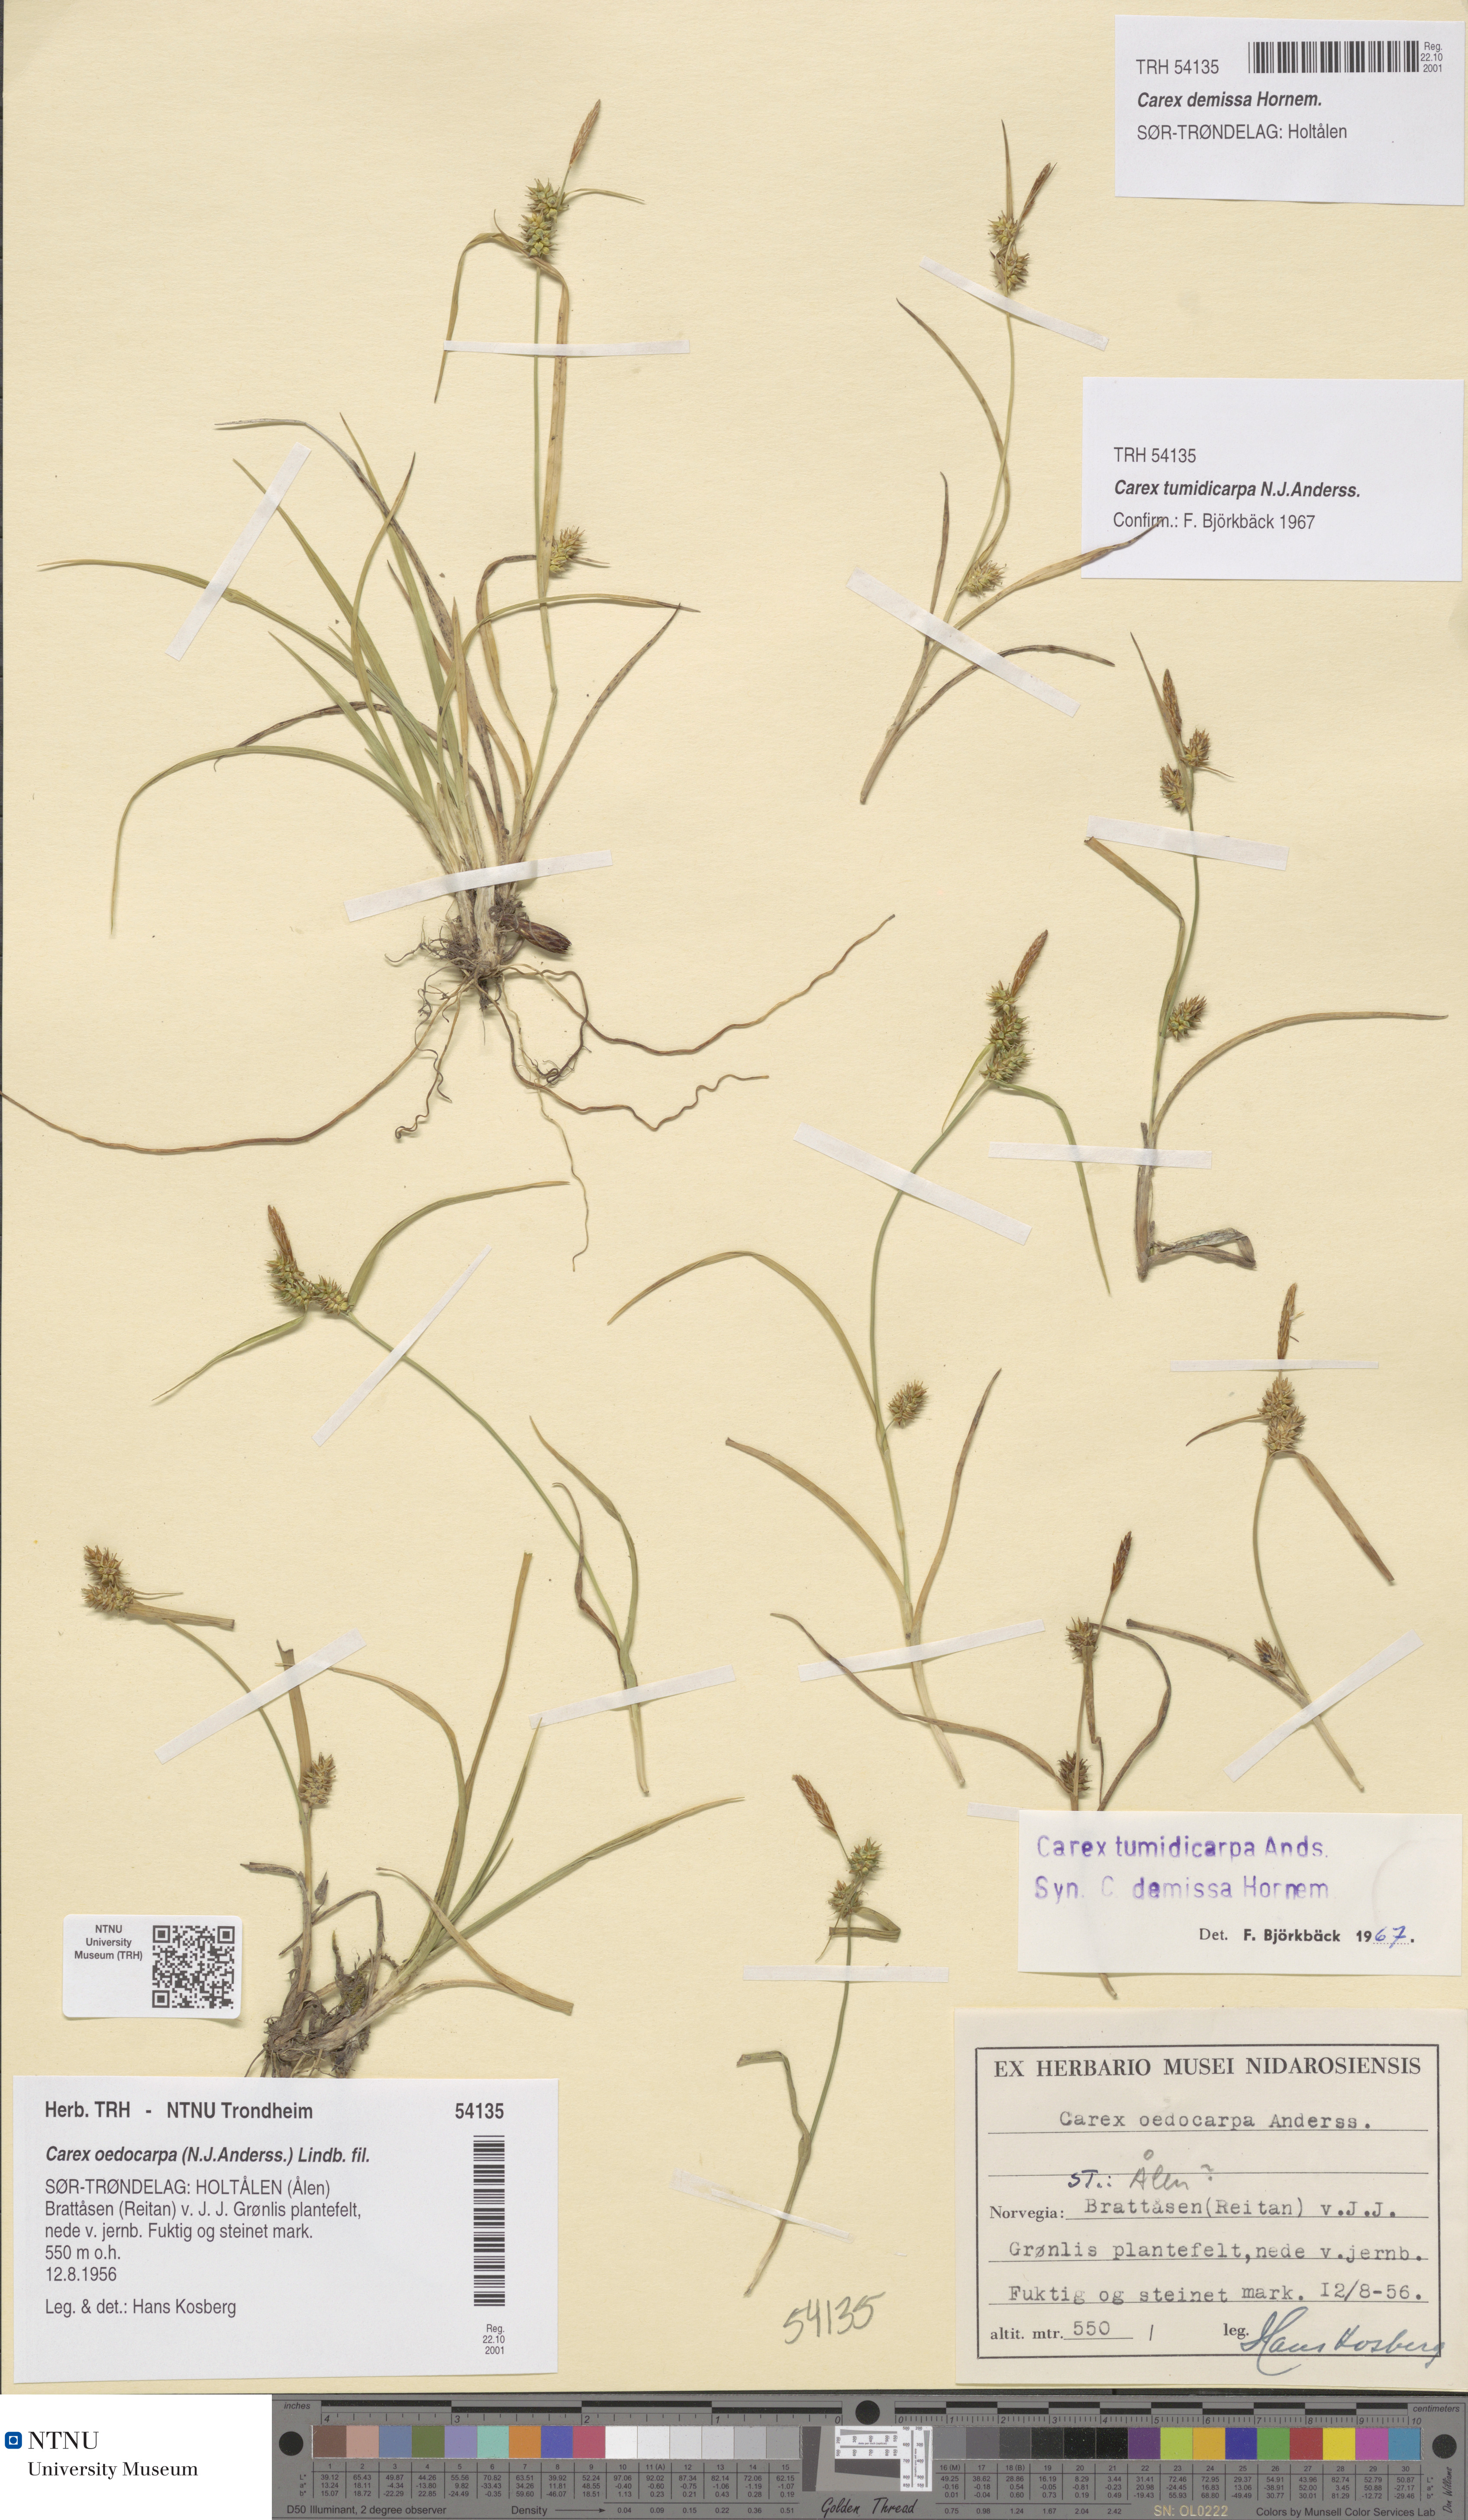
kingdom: Plantae
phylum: Tracheophyta
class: Liliopsida
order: Poales
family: Cyperaceae
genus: Carex
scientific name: Carex demissa
